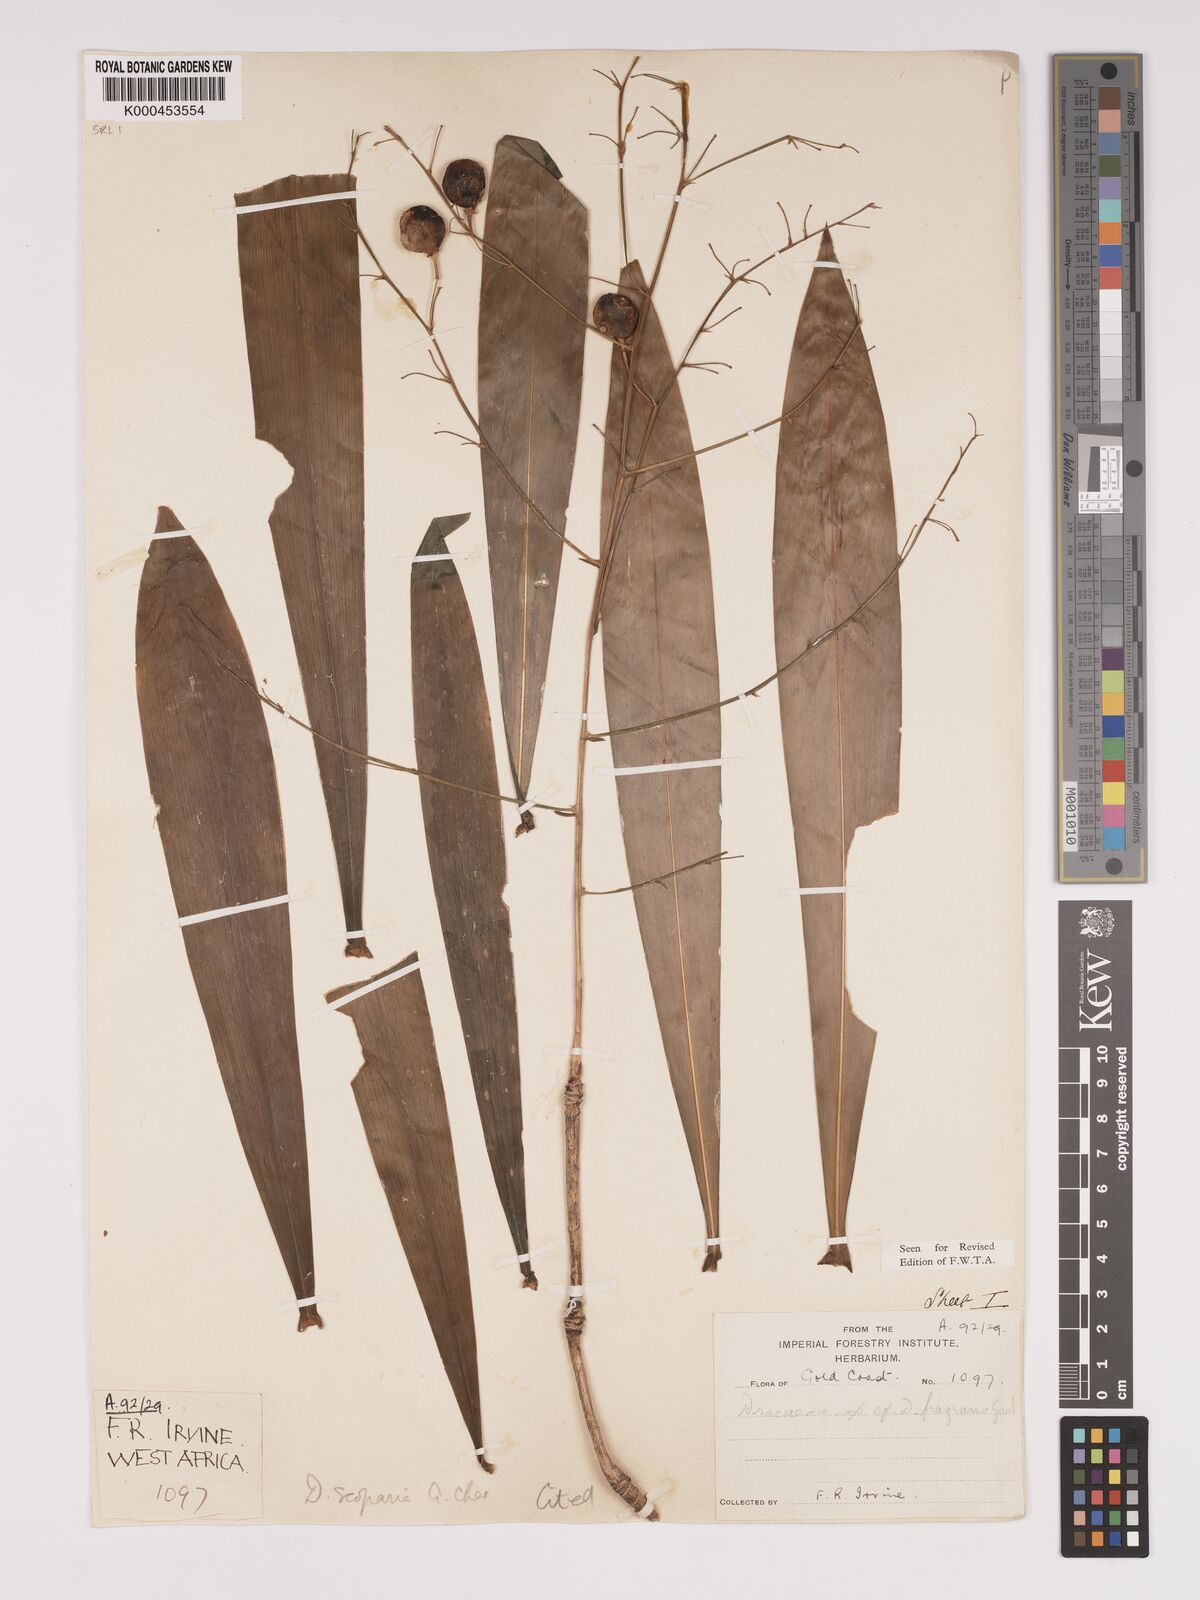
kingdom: Plantae
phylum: Tracheophyta
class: Liliopsida
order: Asparagales
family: Asparagaceae
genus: Dracaena
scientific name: Dracaena cerasifera
